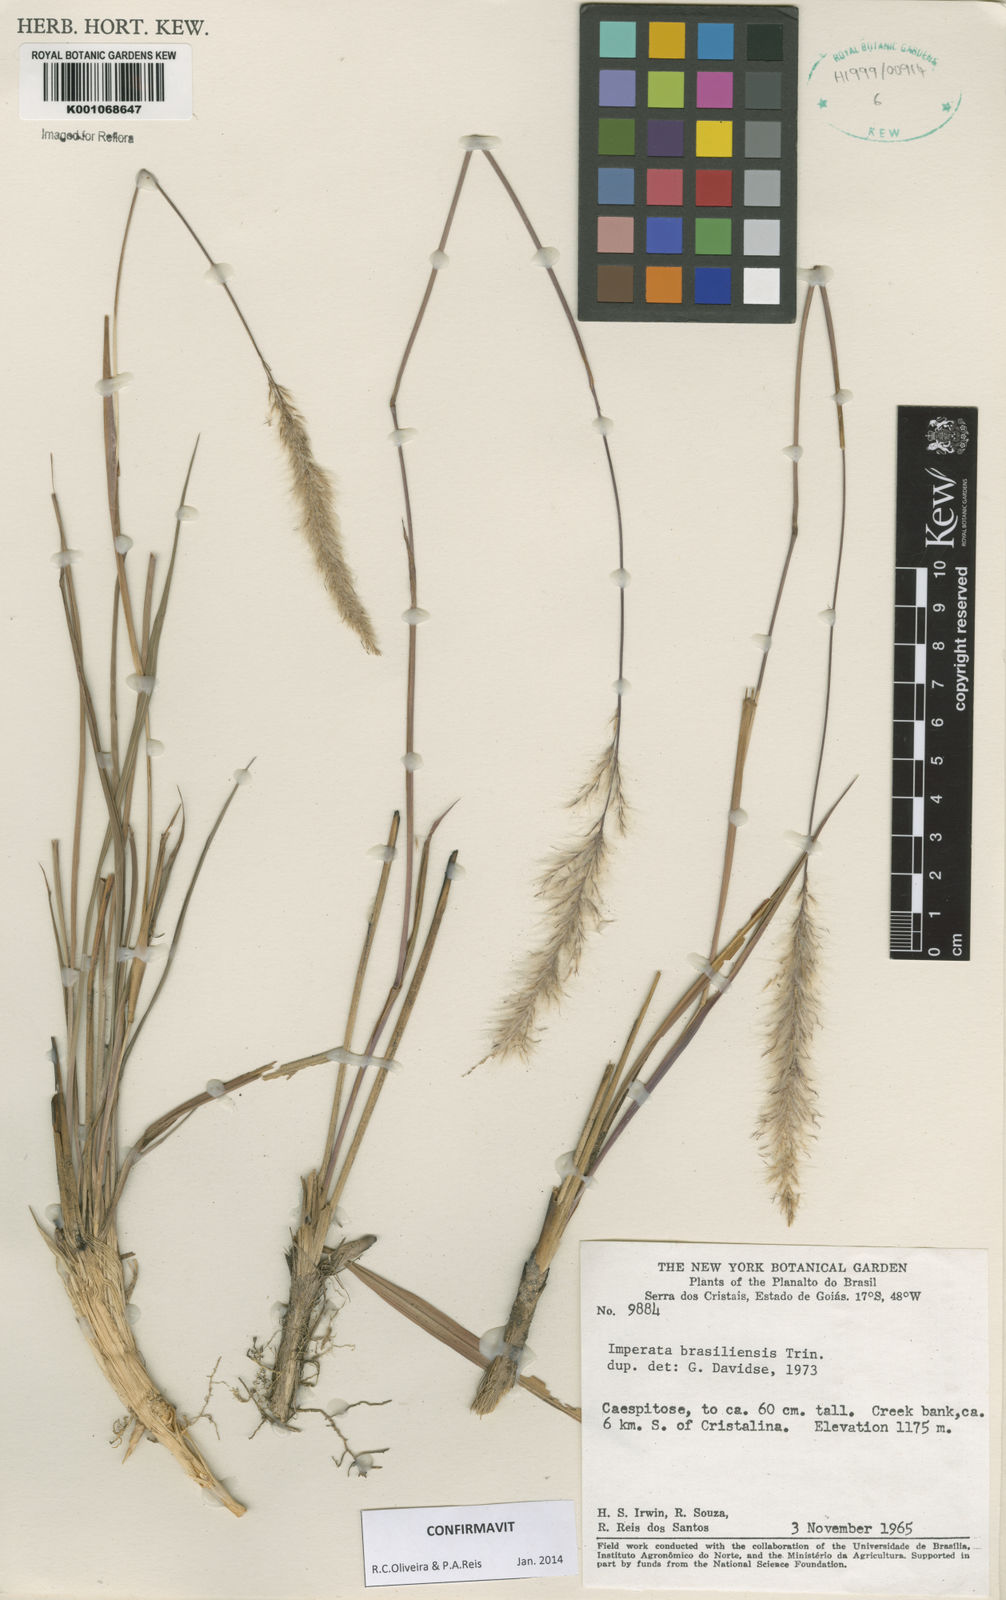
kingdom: Plantae
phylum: Tracheophyta
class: Liliopsida
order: Poales
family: Poaceae
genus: Imperata
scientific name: Imperata brasiliensis
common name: Brazilian satintail
